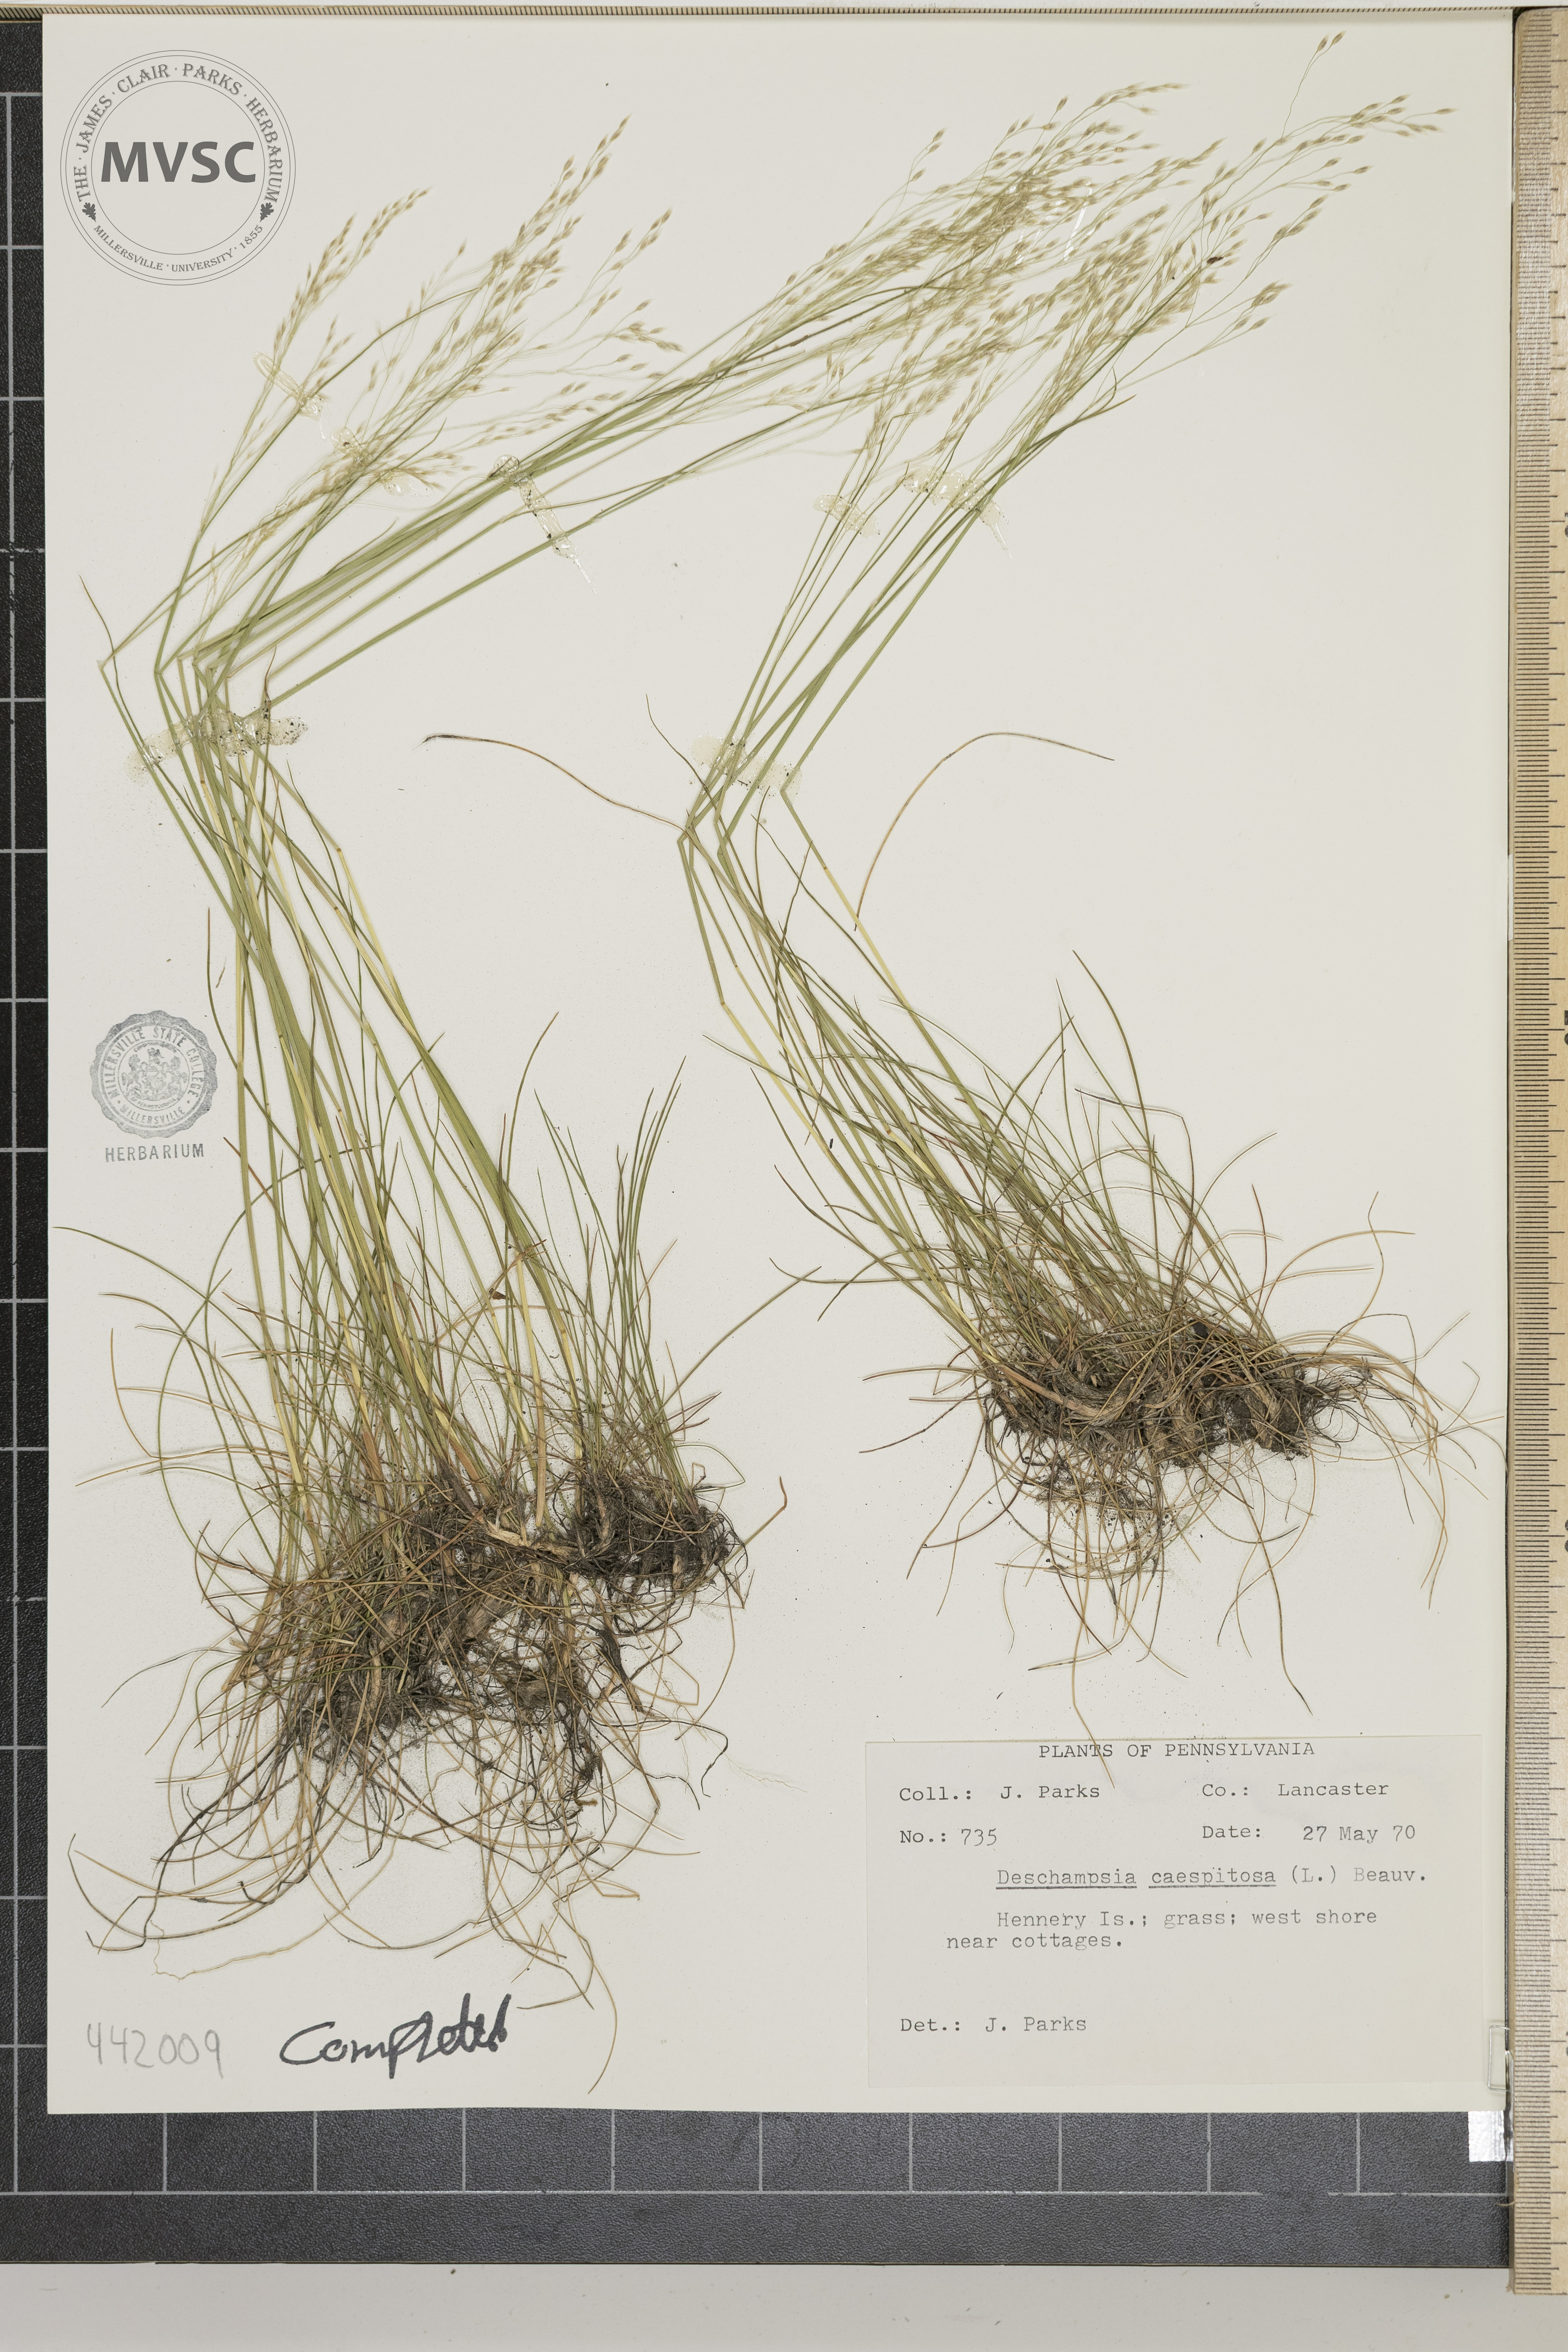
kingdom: Plantae
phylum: Tracheophyta
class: Liliopsida
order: Poales
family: Poaceae
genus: Deschampsia
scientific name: Deschampsia cespitosa
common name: Tufted hair-grass
